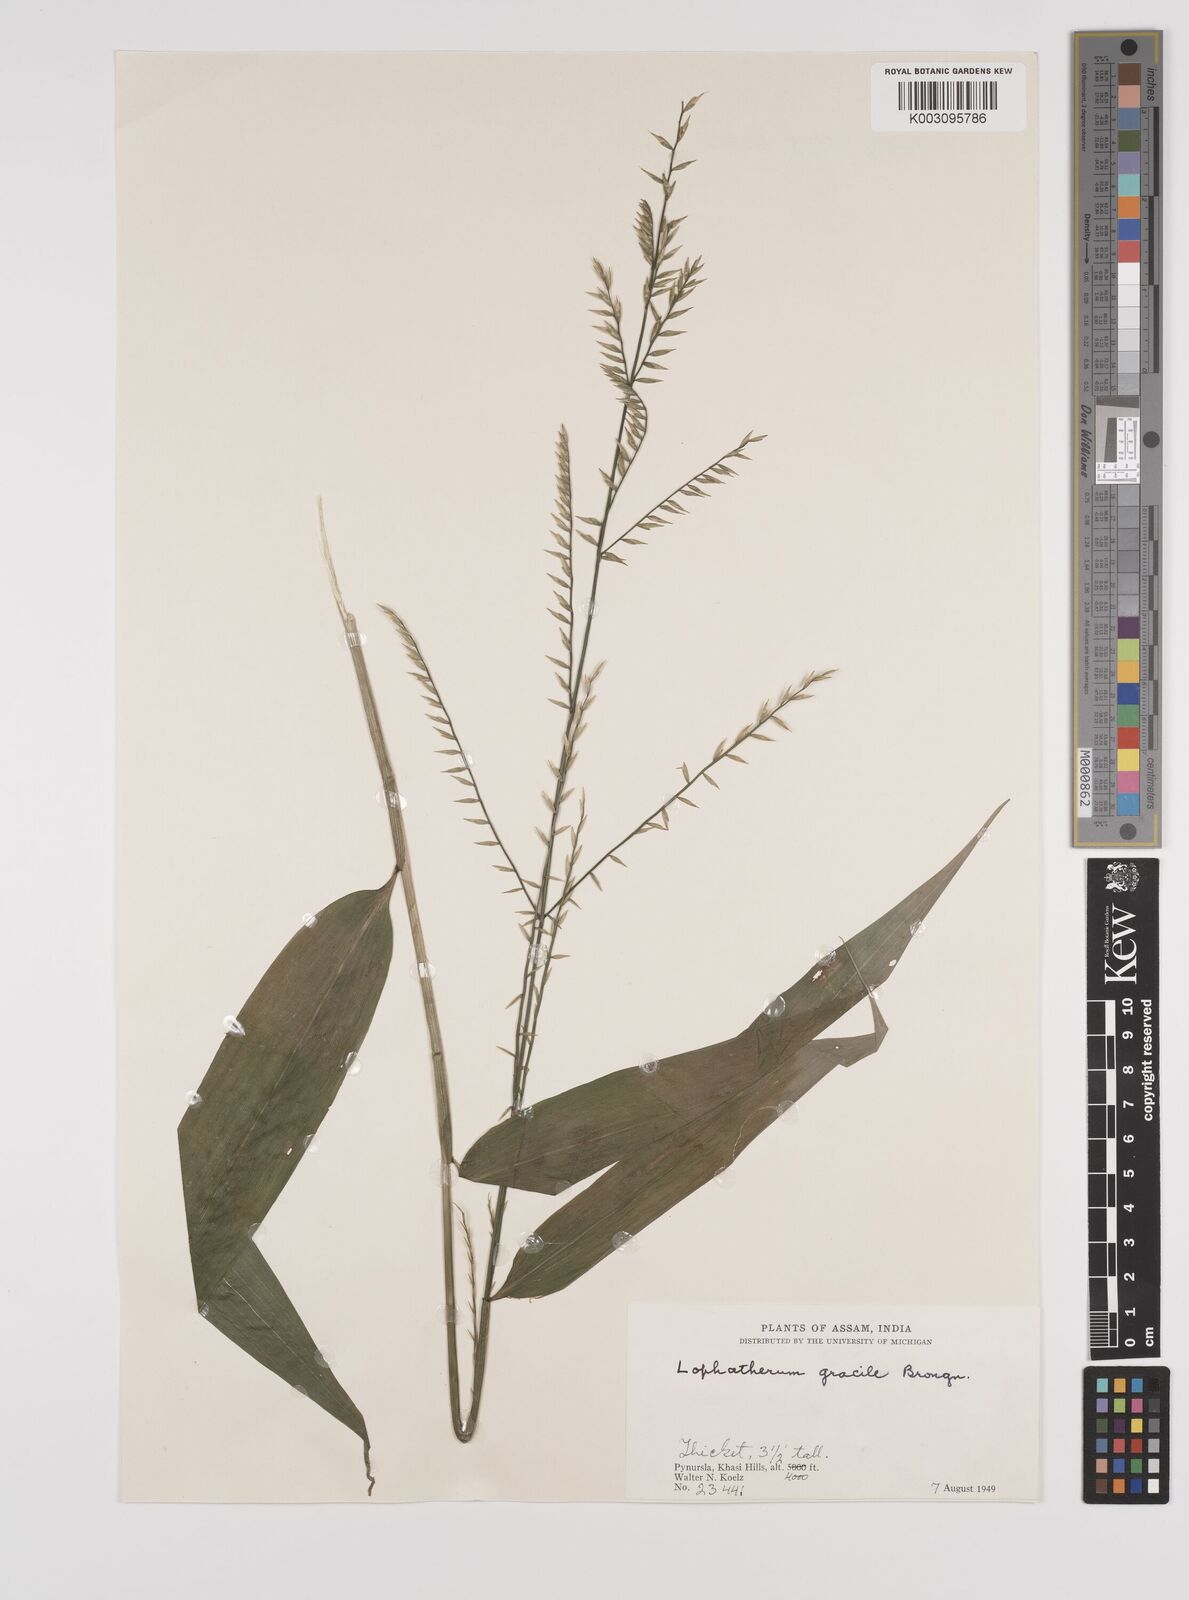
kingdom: Plantae
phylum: Tracheophyta
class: Liliopsida
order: Poales
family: Poaceae
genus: Lophatherum
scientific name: Lophatherum gracile
